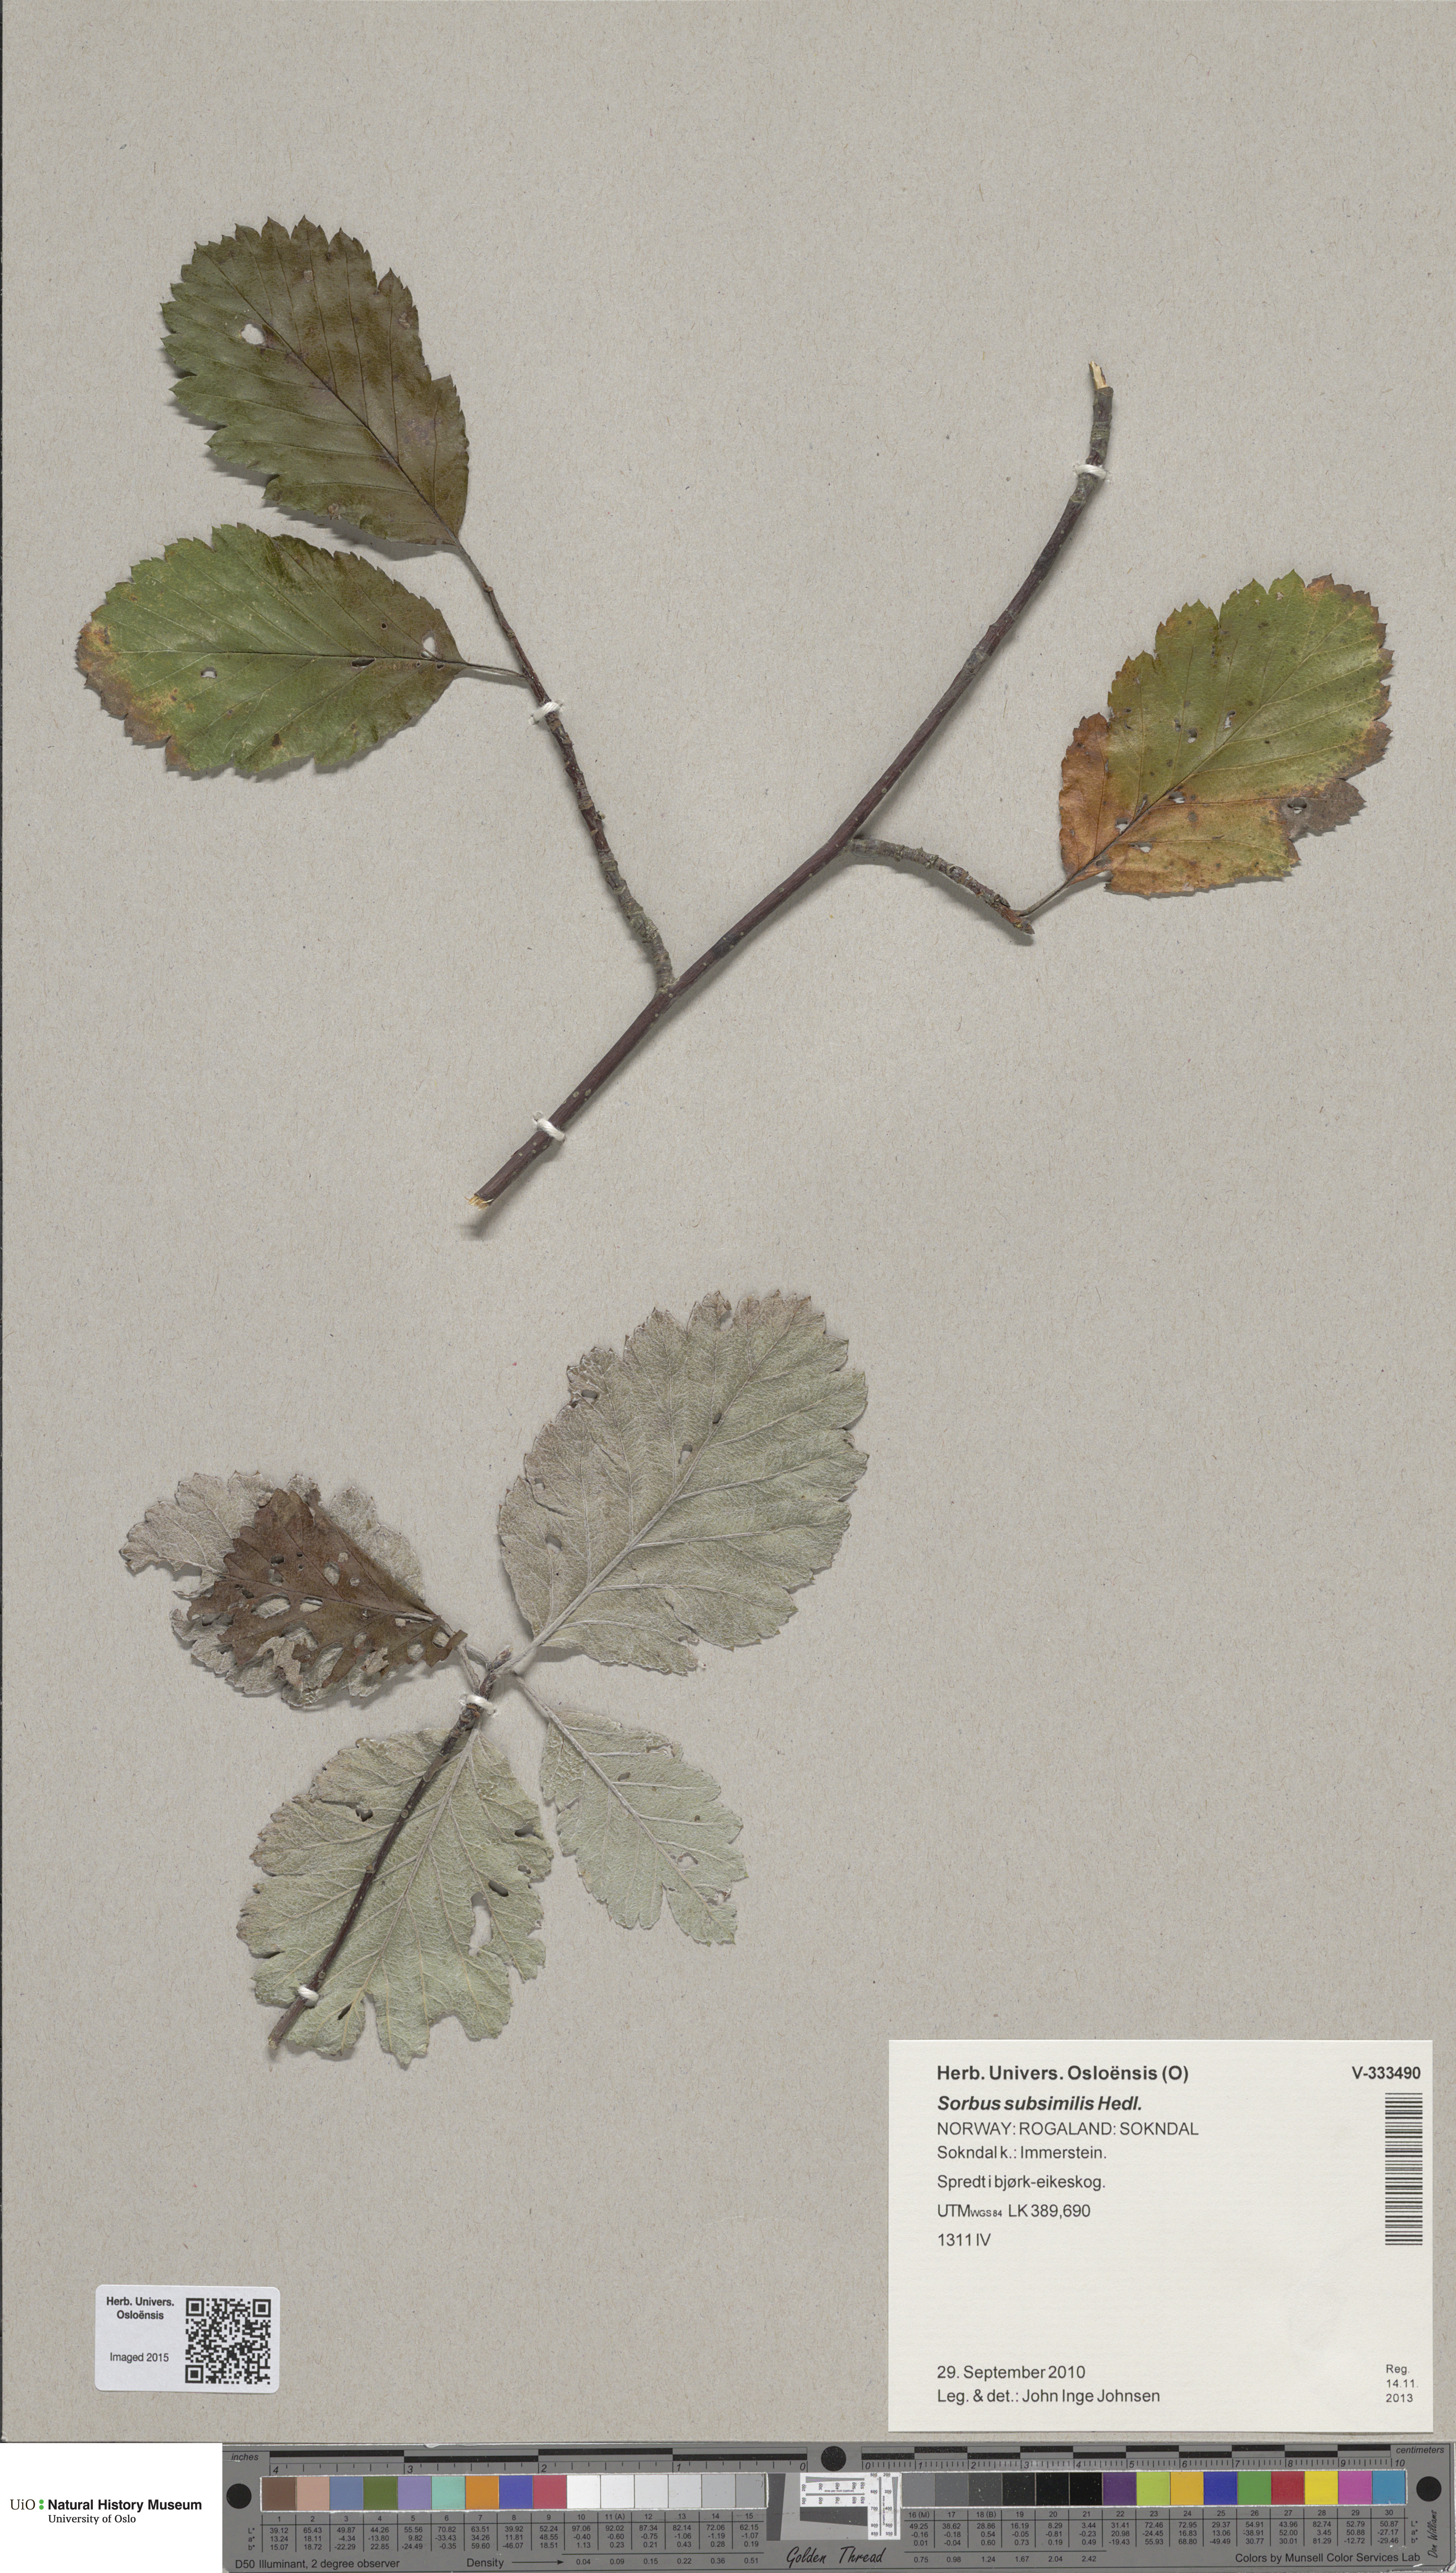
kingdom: Plantae
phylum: Tracheophyta
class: Magnoliopsida
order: Rosales
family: Rosaceae
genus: Hedlundia
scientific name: Hedlundia subsimilis
